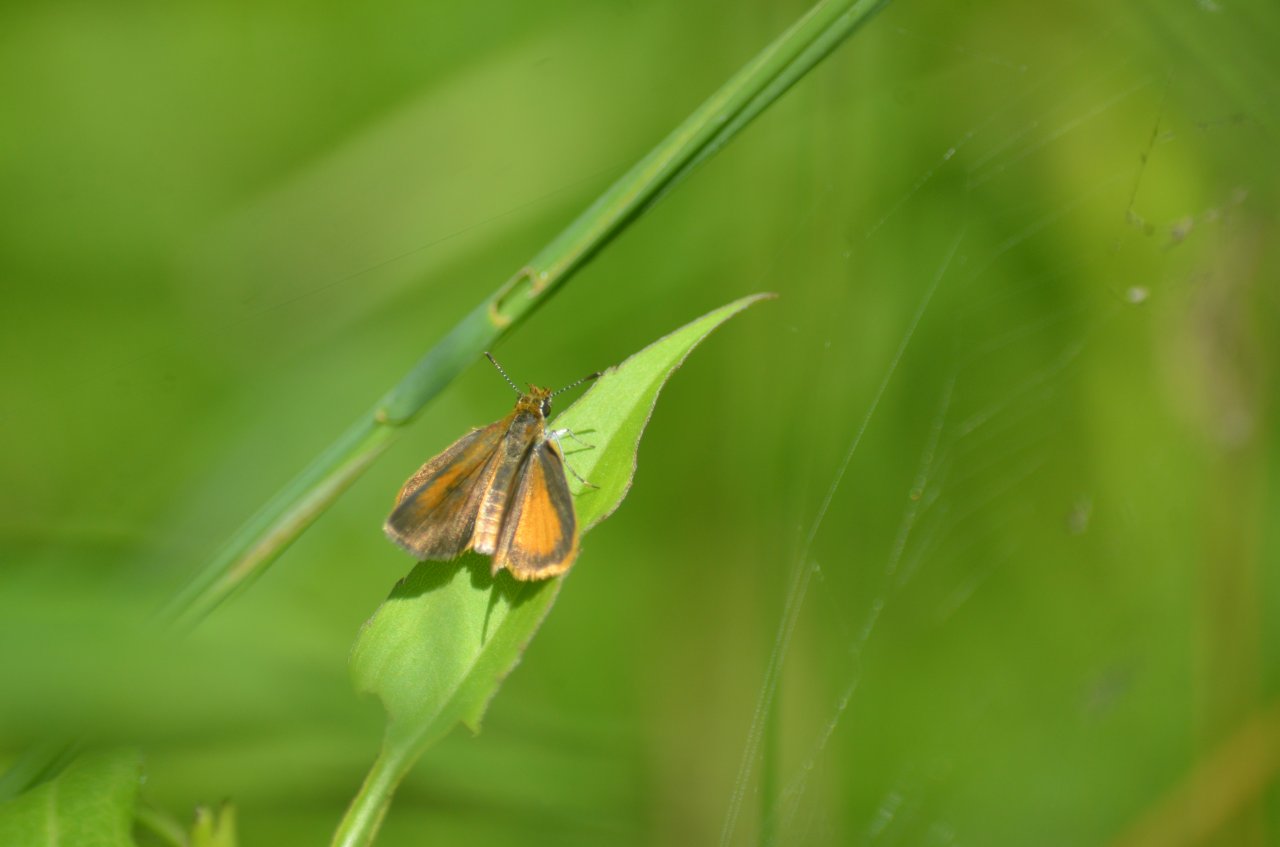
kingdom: Animalia
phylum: Arthropoda
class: Insecta
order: Lepidoptera
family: Hesperiidae
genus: Ancyloxypha
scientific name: Ancyloxypha numitor
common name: Least Skipper
